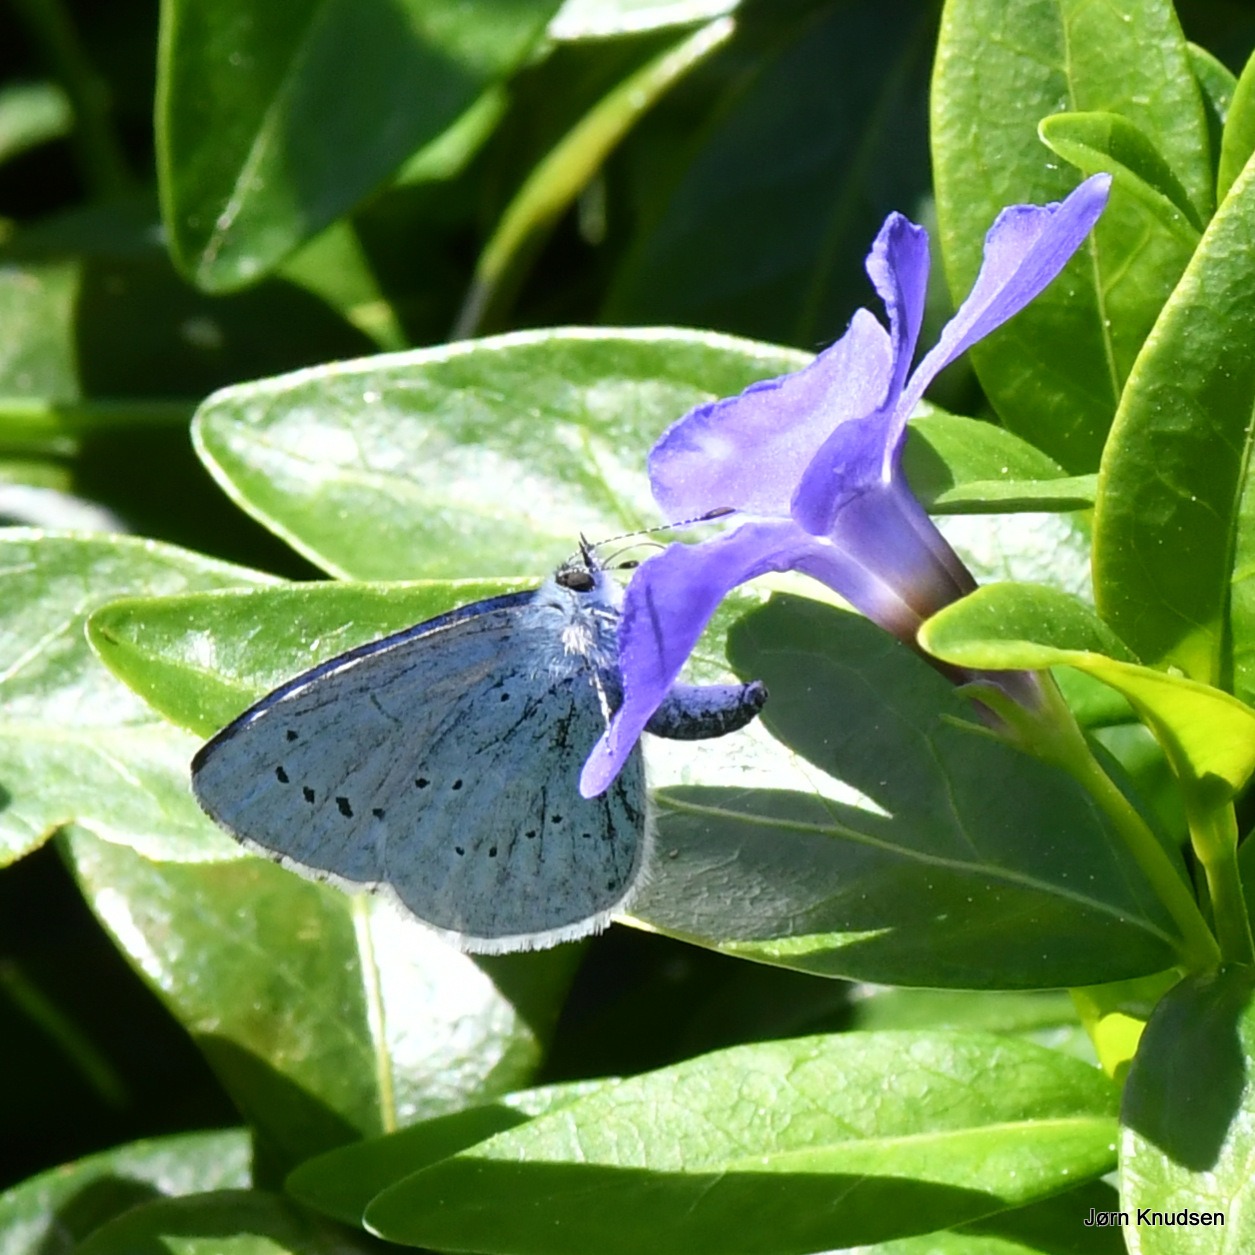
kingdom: Animalia
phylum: Arthropoda
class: Insecta
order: Lepidoptera
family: Lycaenidae
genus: Celastrina
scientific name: Celastrina argiolus
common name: Skovblåfugl
